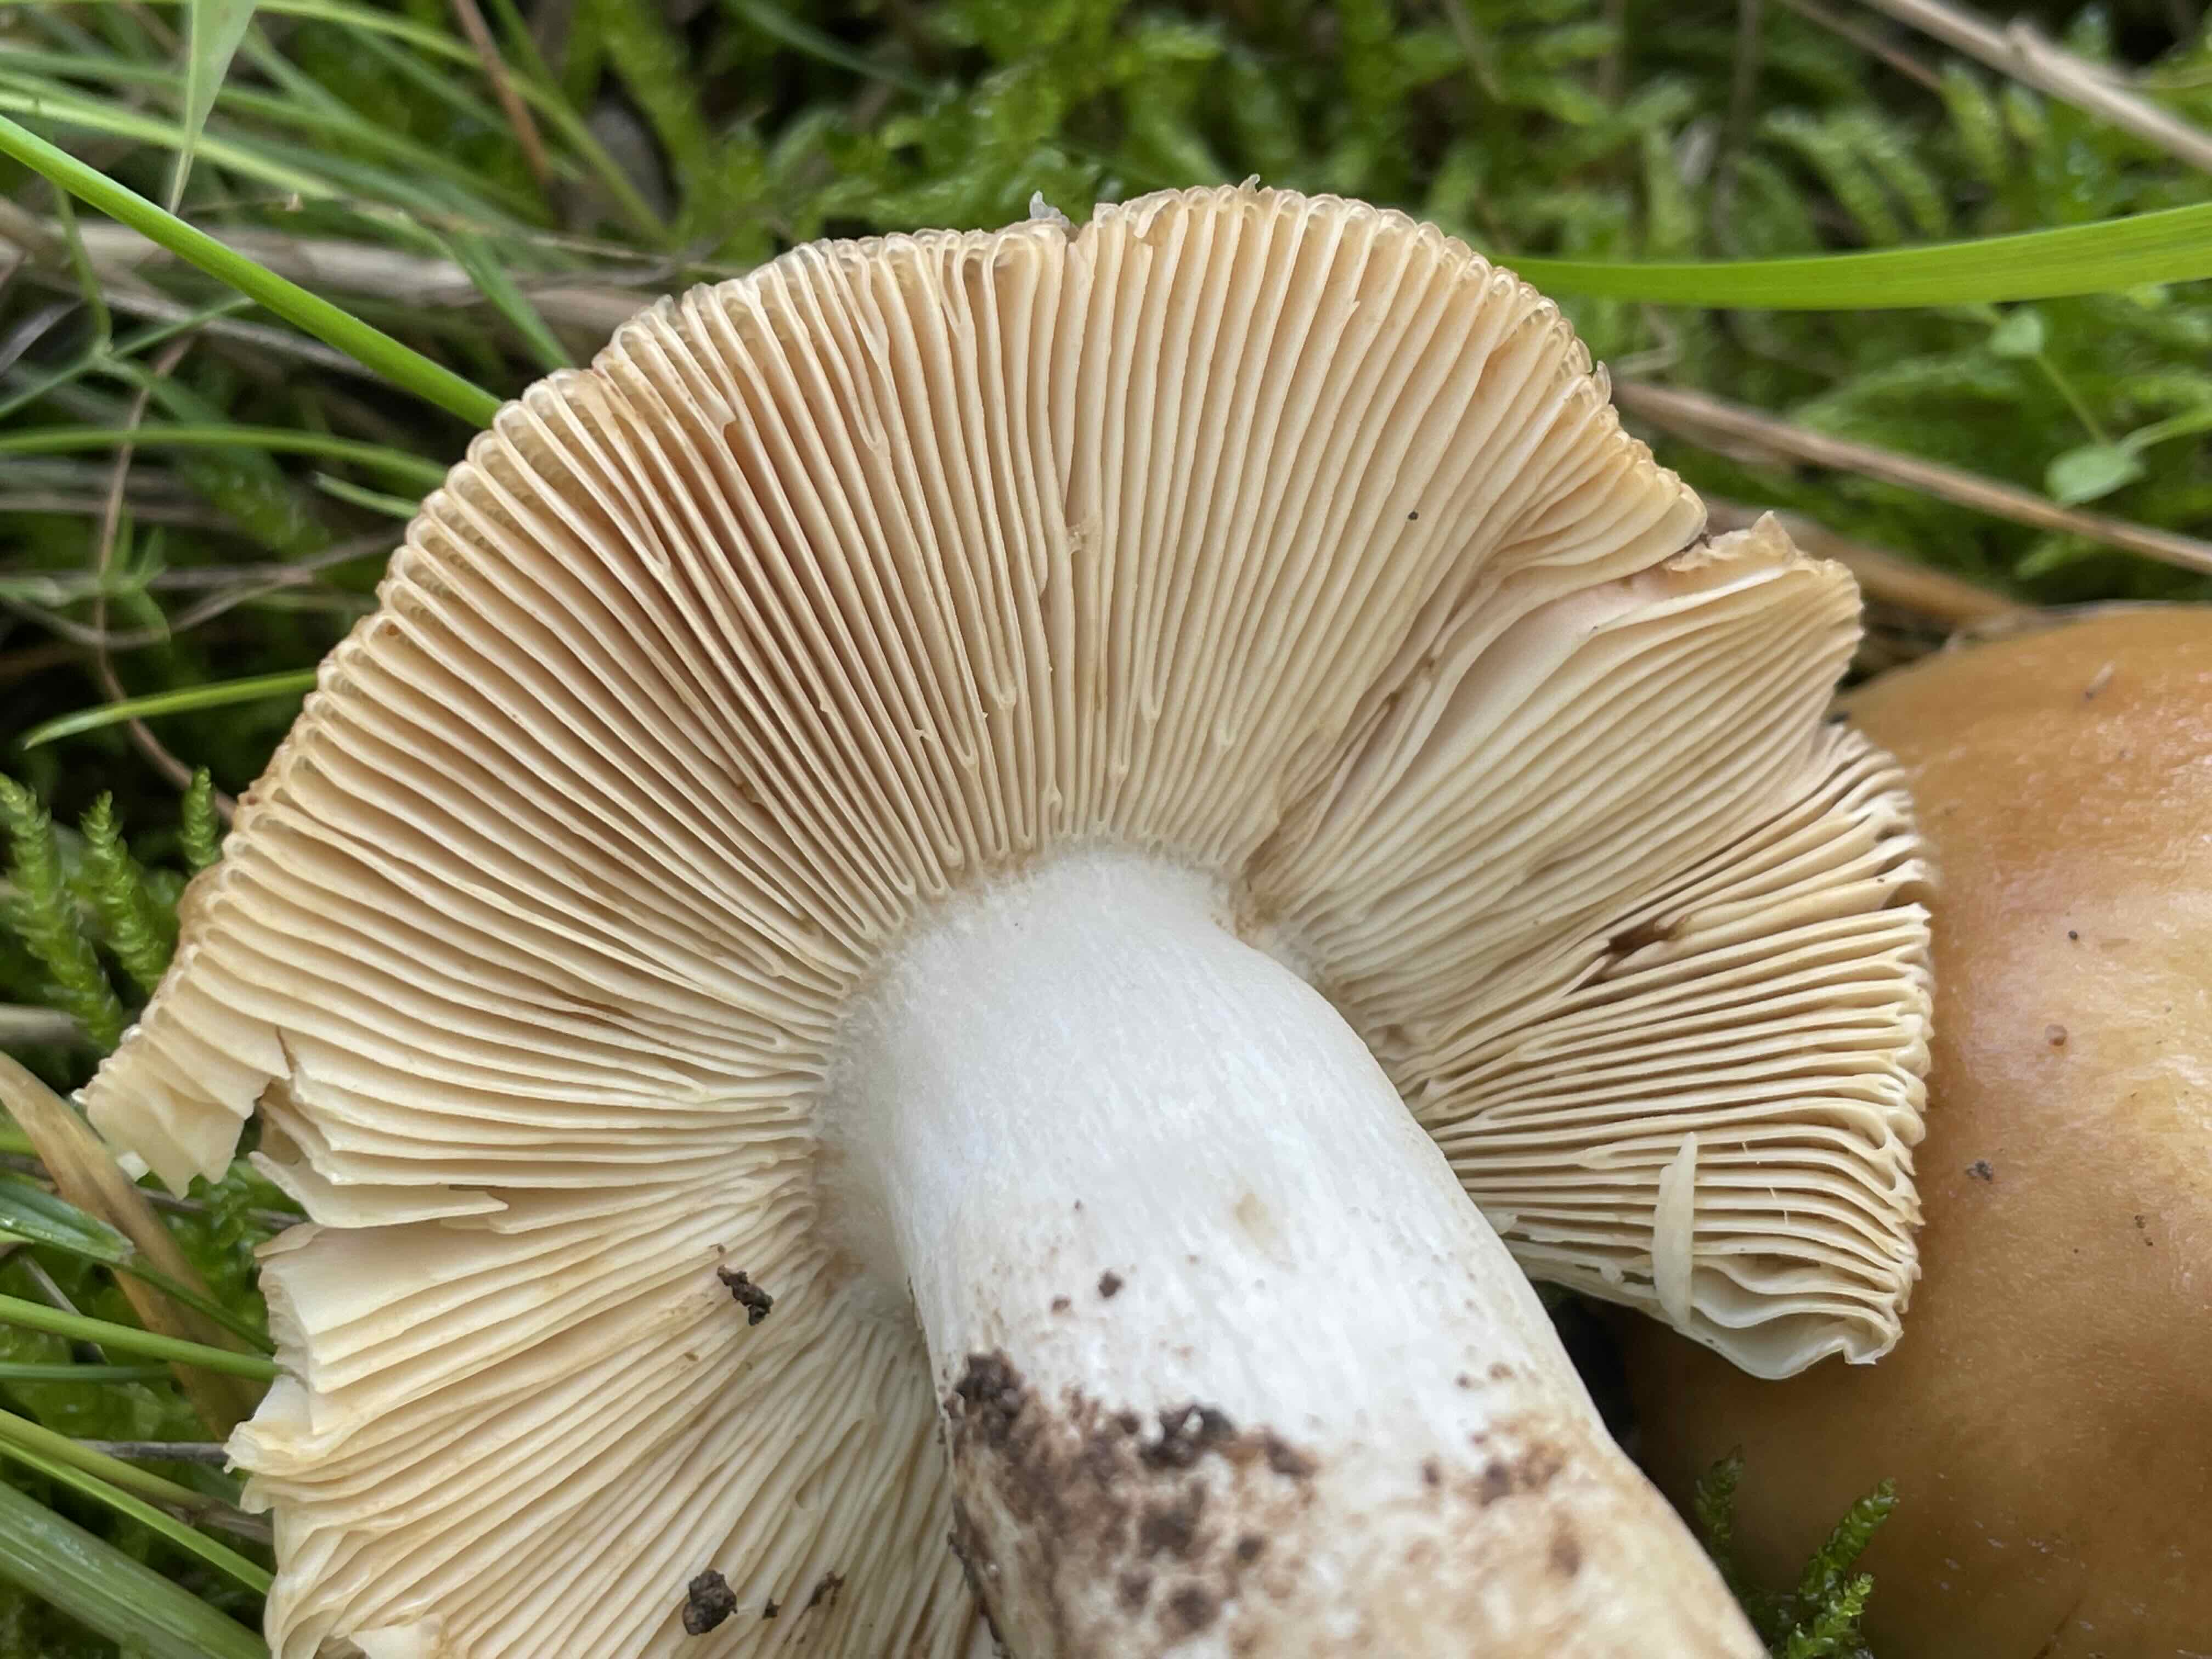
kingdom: Fungi
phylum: Basidiomycota
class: Agaricomycetes
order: Russulales
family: Russulaceae
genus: Russula
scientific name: Russula foetens
